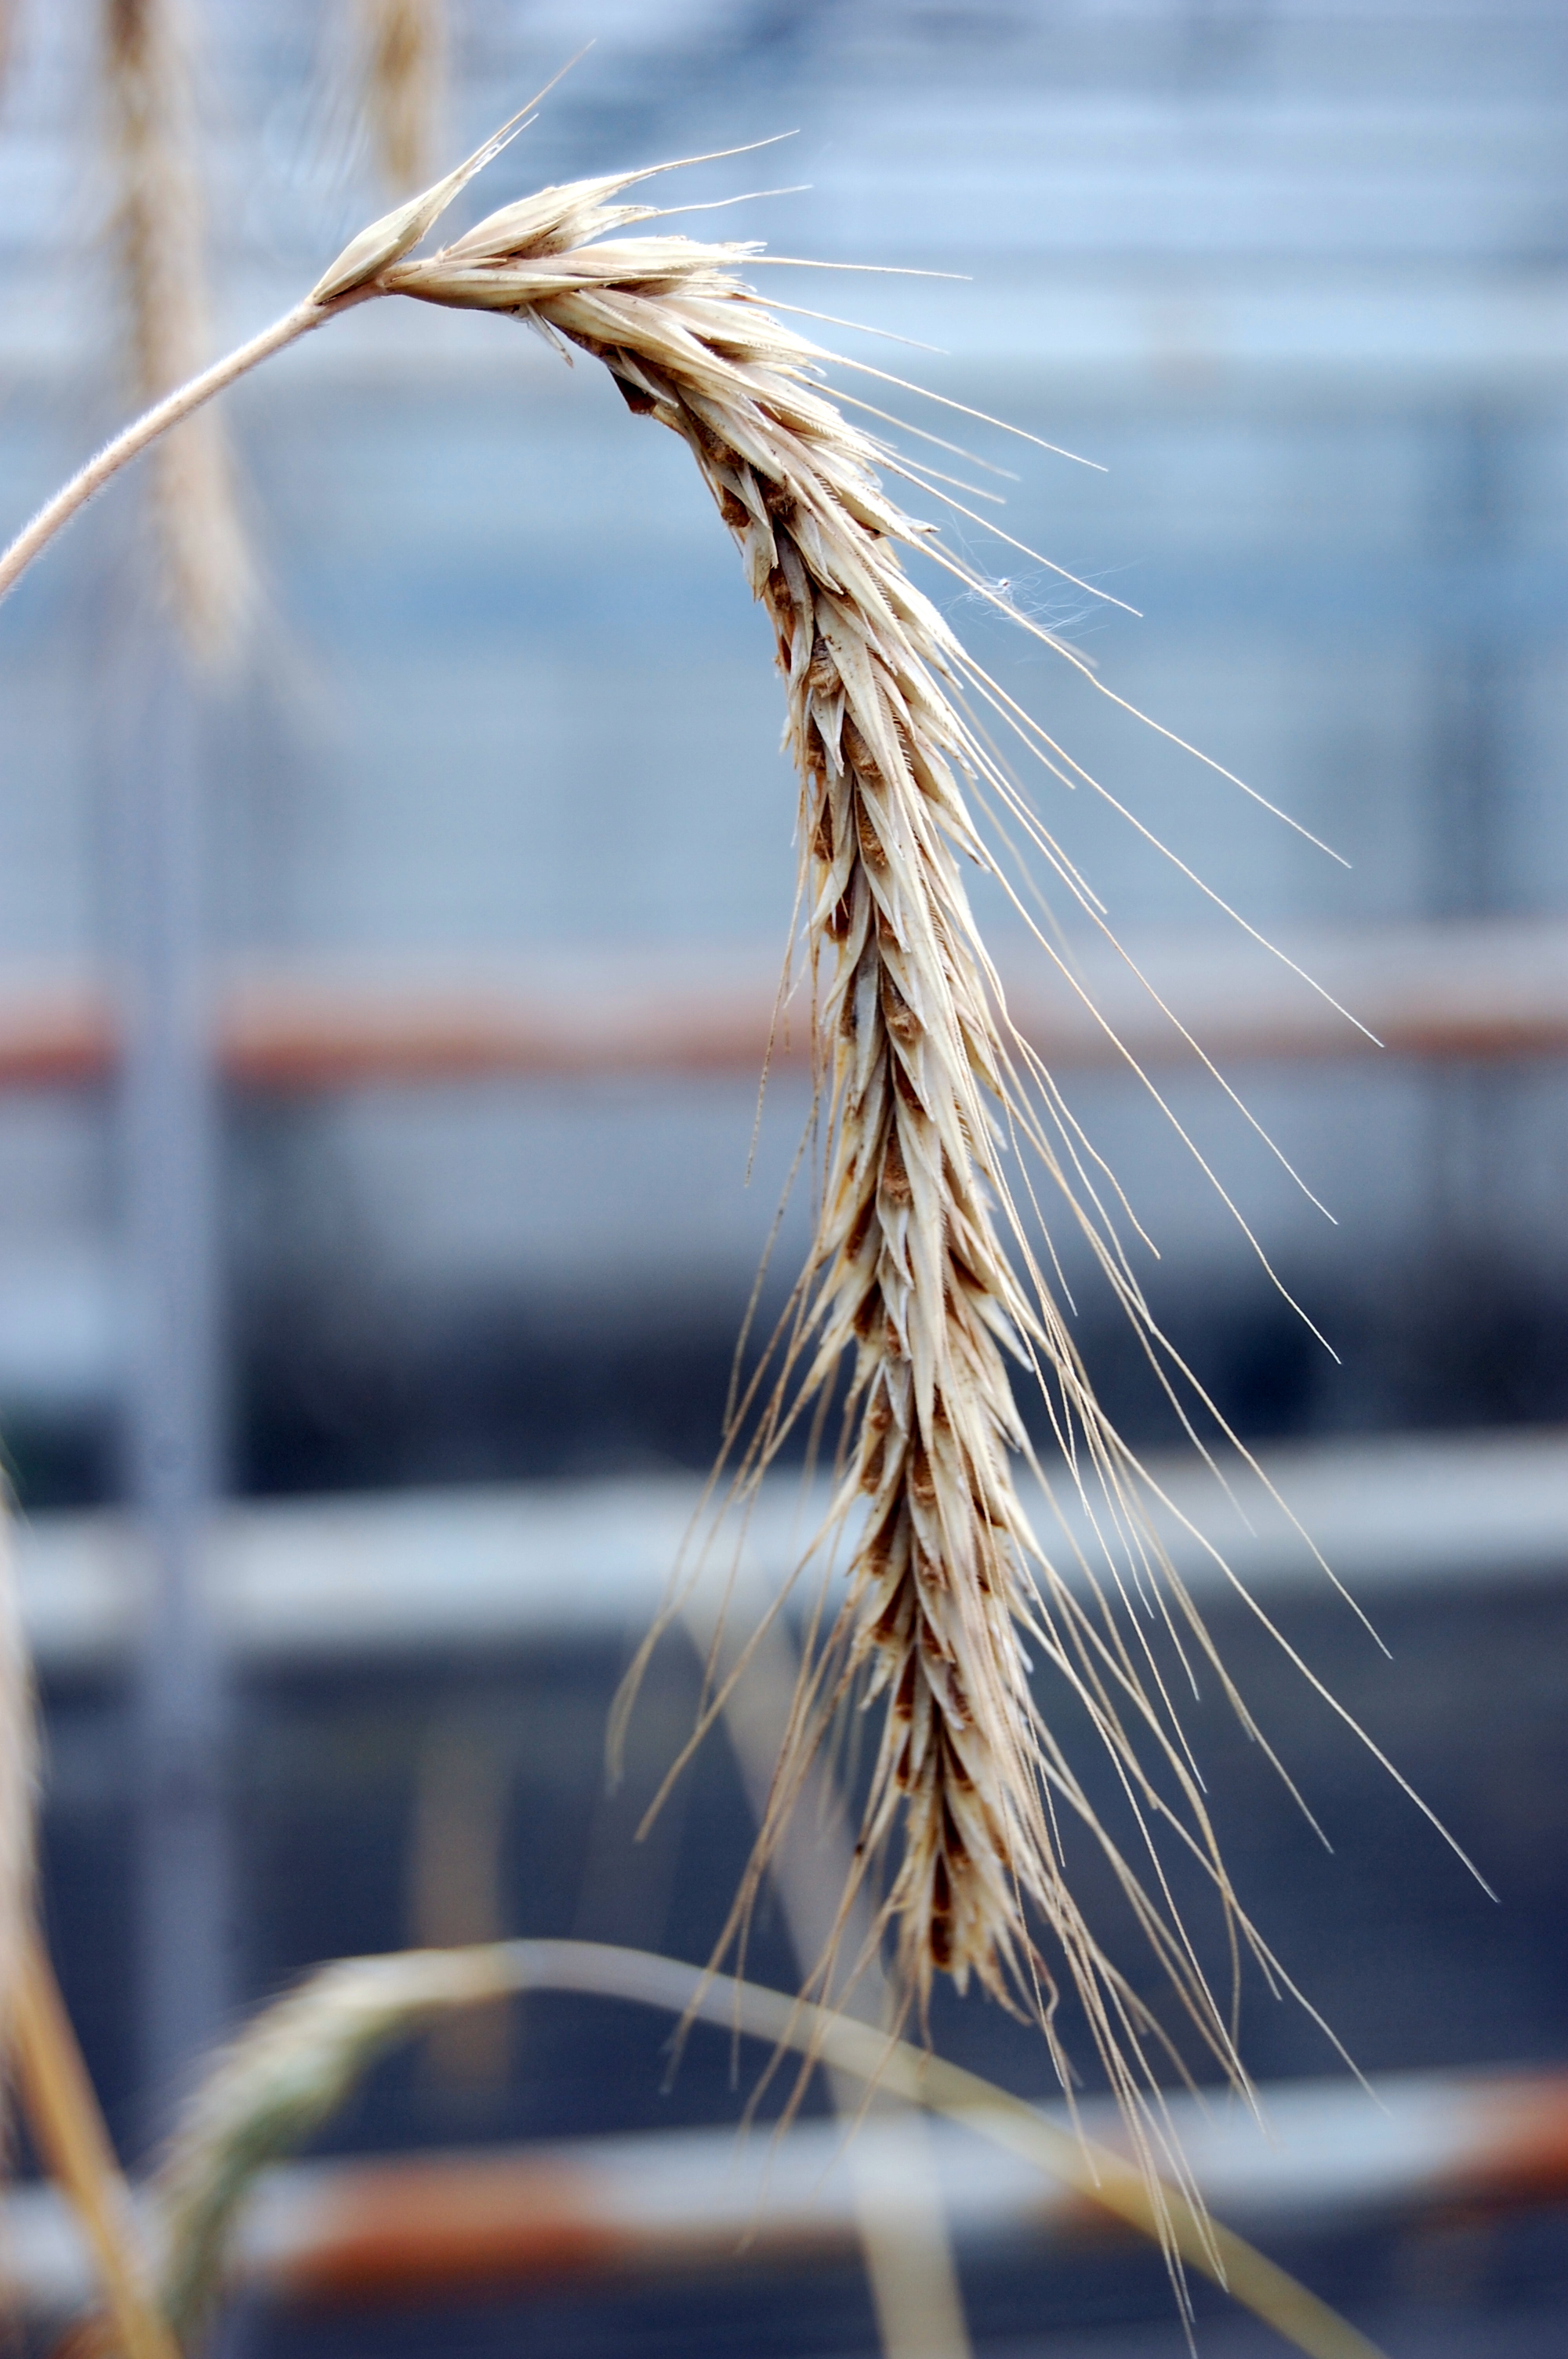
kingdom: Plantae
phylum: Tracheophyta
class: Liliopsida
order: Poales
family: Poaceae
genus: Secale
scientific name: Secale cereale
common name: Rye
